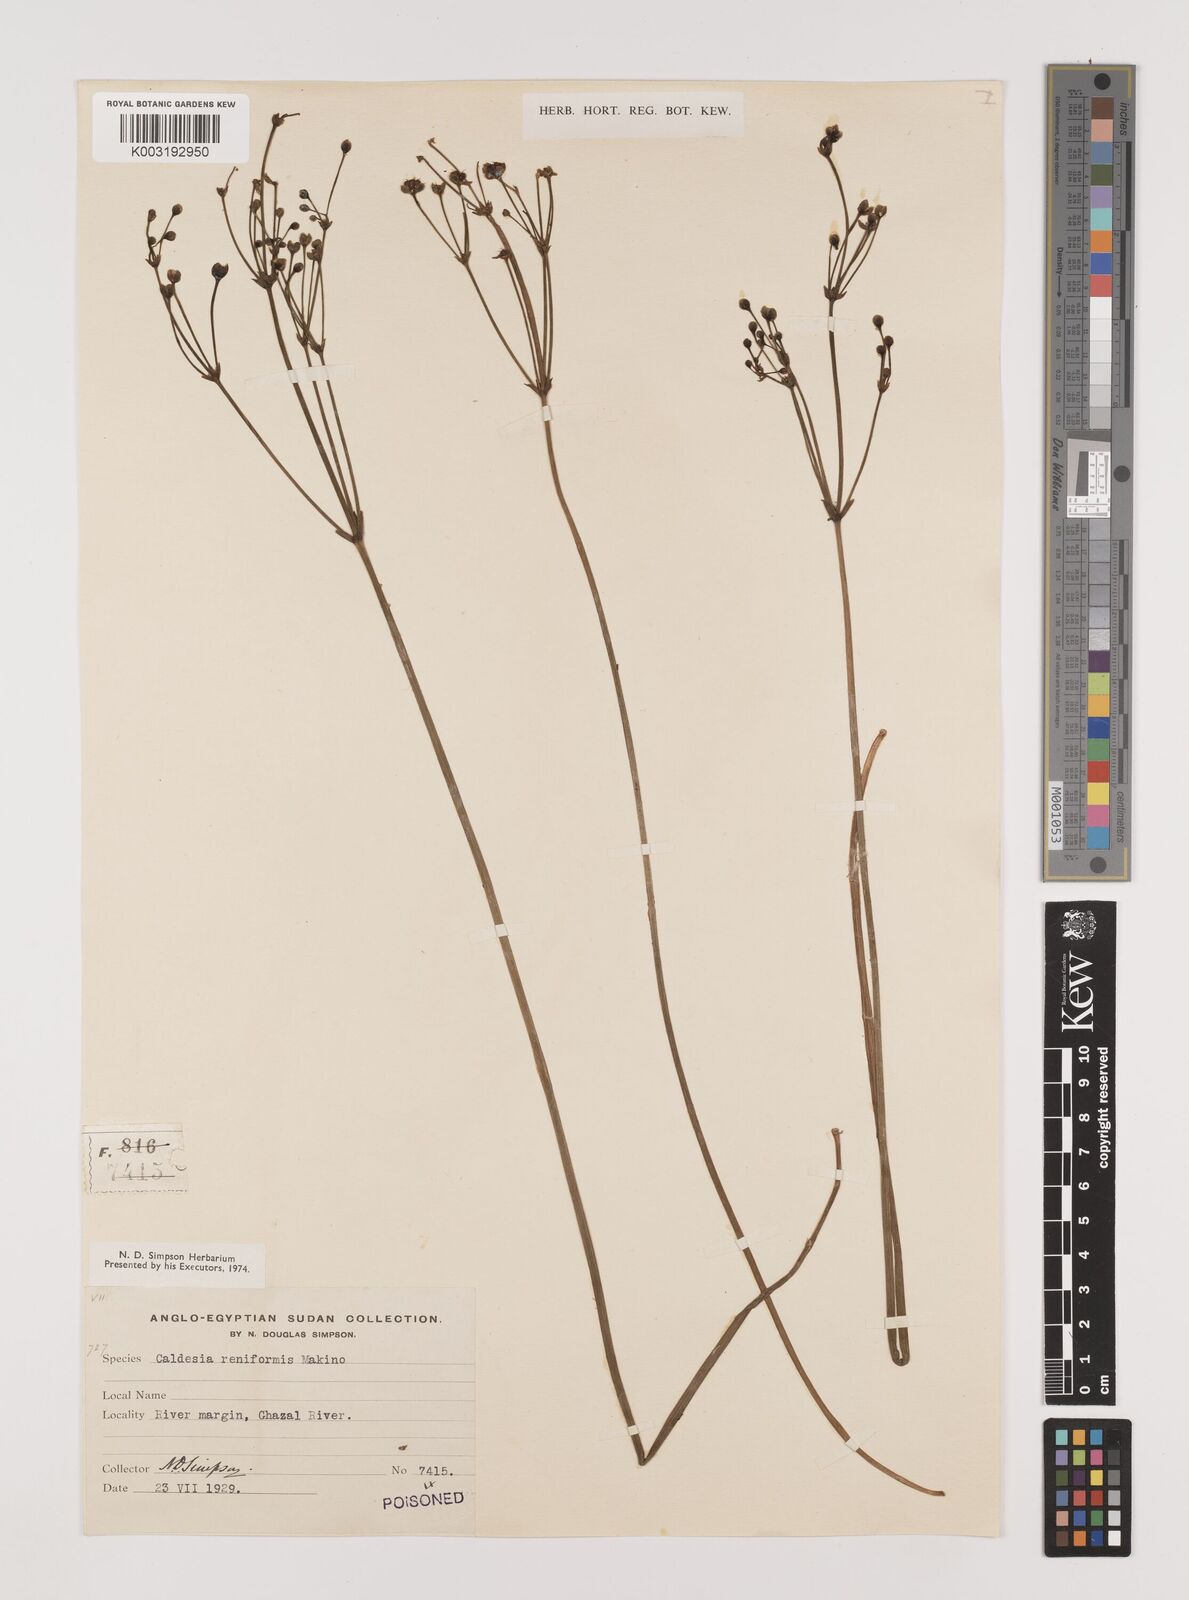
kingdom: Plantae
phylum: Tracheophyta
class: Liliopsida
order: Alismatales
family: Alismataceae
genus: Caldesia
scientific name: Caldesia parnassifolia
